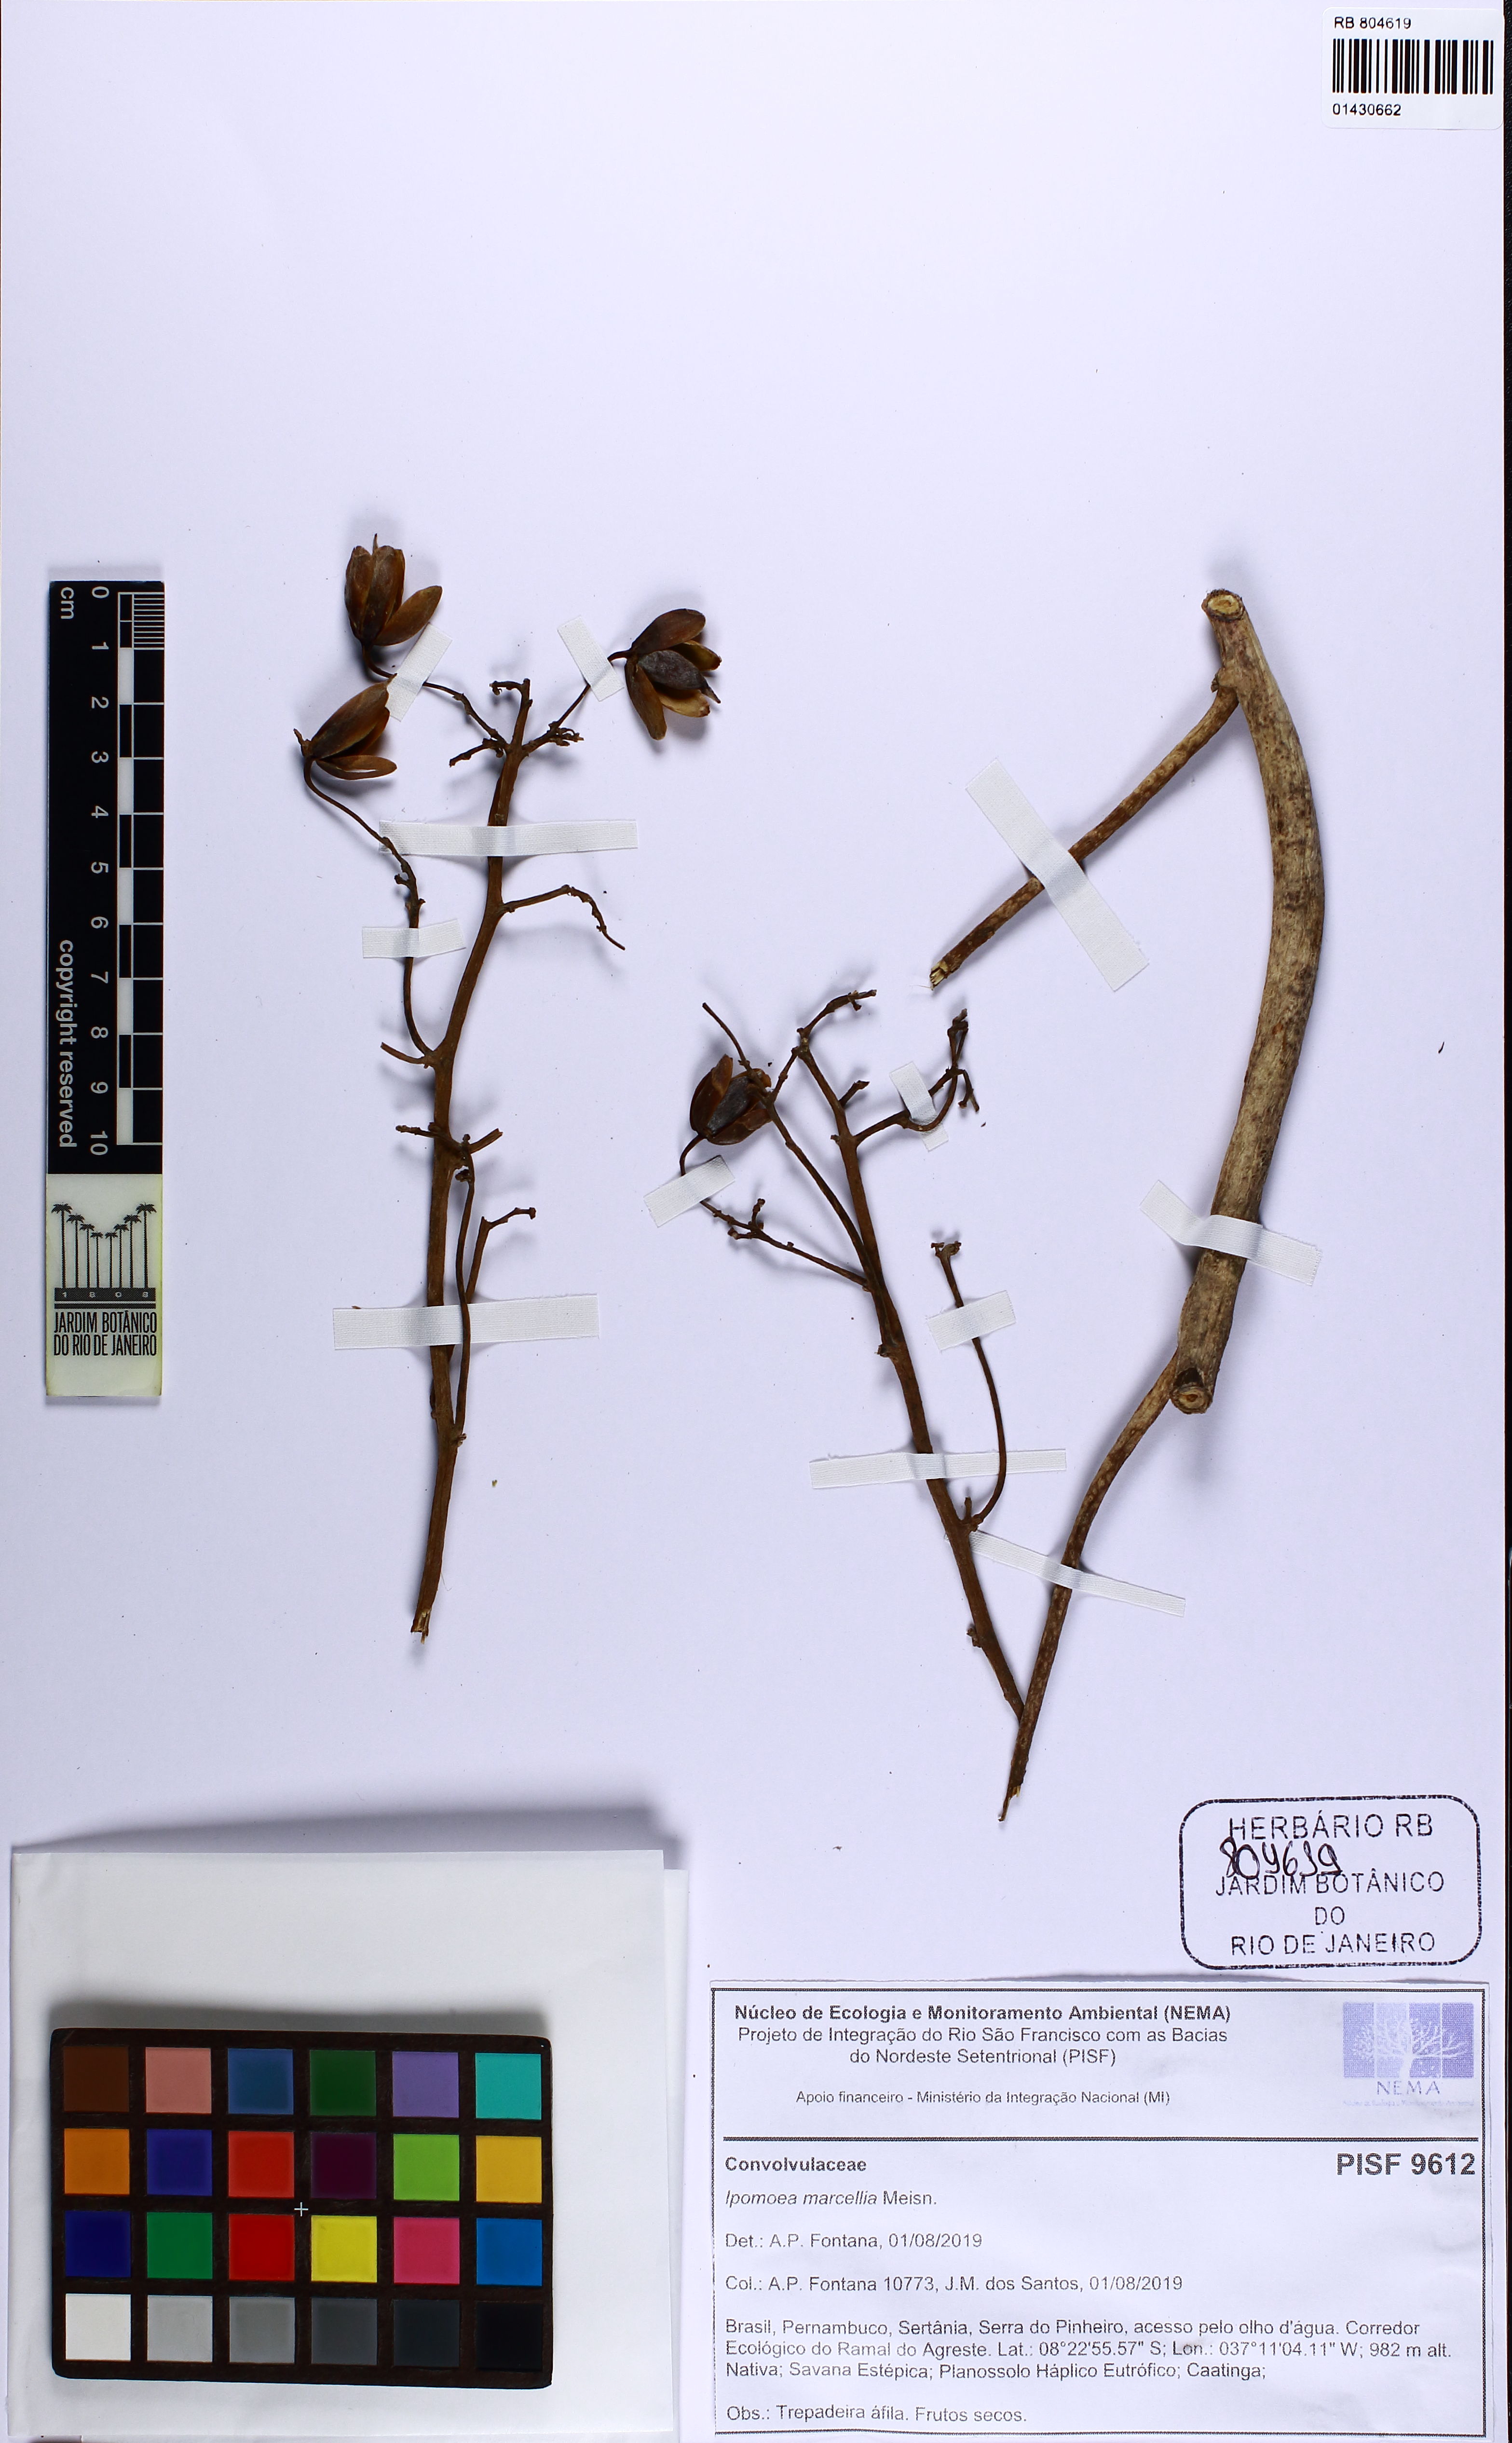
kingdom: Plantae
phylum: Tracheophyta
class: Magnoliopsida
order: Solanales
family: Convolvulaceae
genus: Ipomoea
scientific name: Ipomoea marcellia
